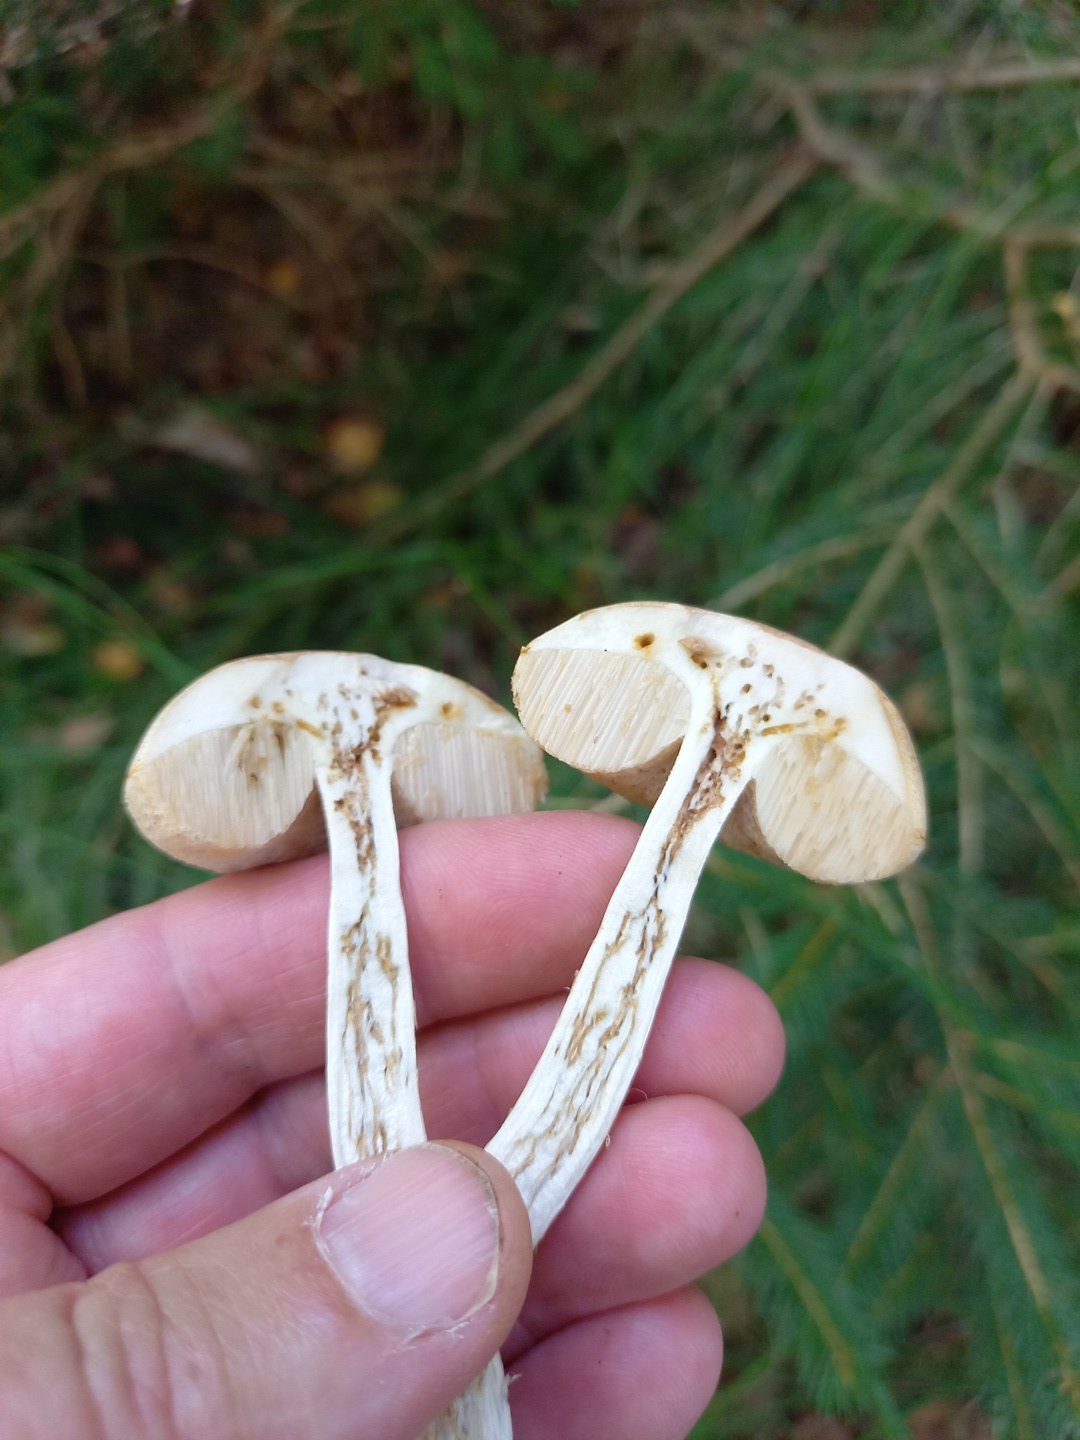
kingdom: Fungi
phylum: Basidiomycota
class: Agaricomycetes
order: Boletales
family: Boletaceae
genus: Leccinum
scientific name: Leccinum
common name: skælrørhat
